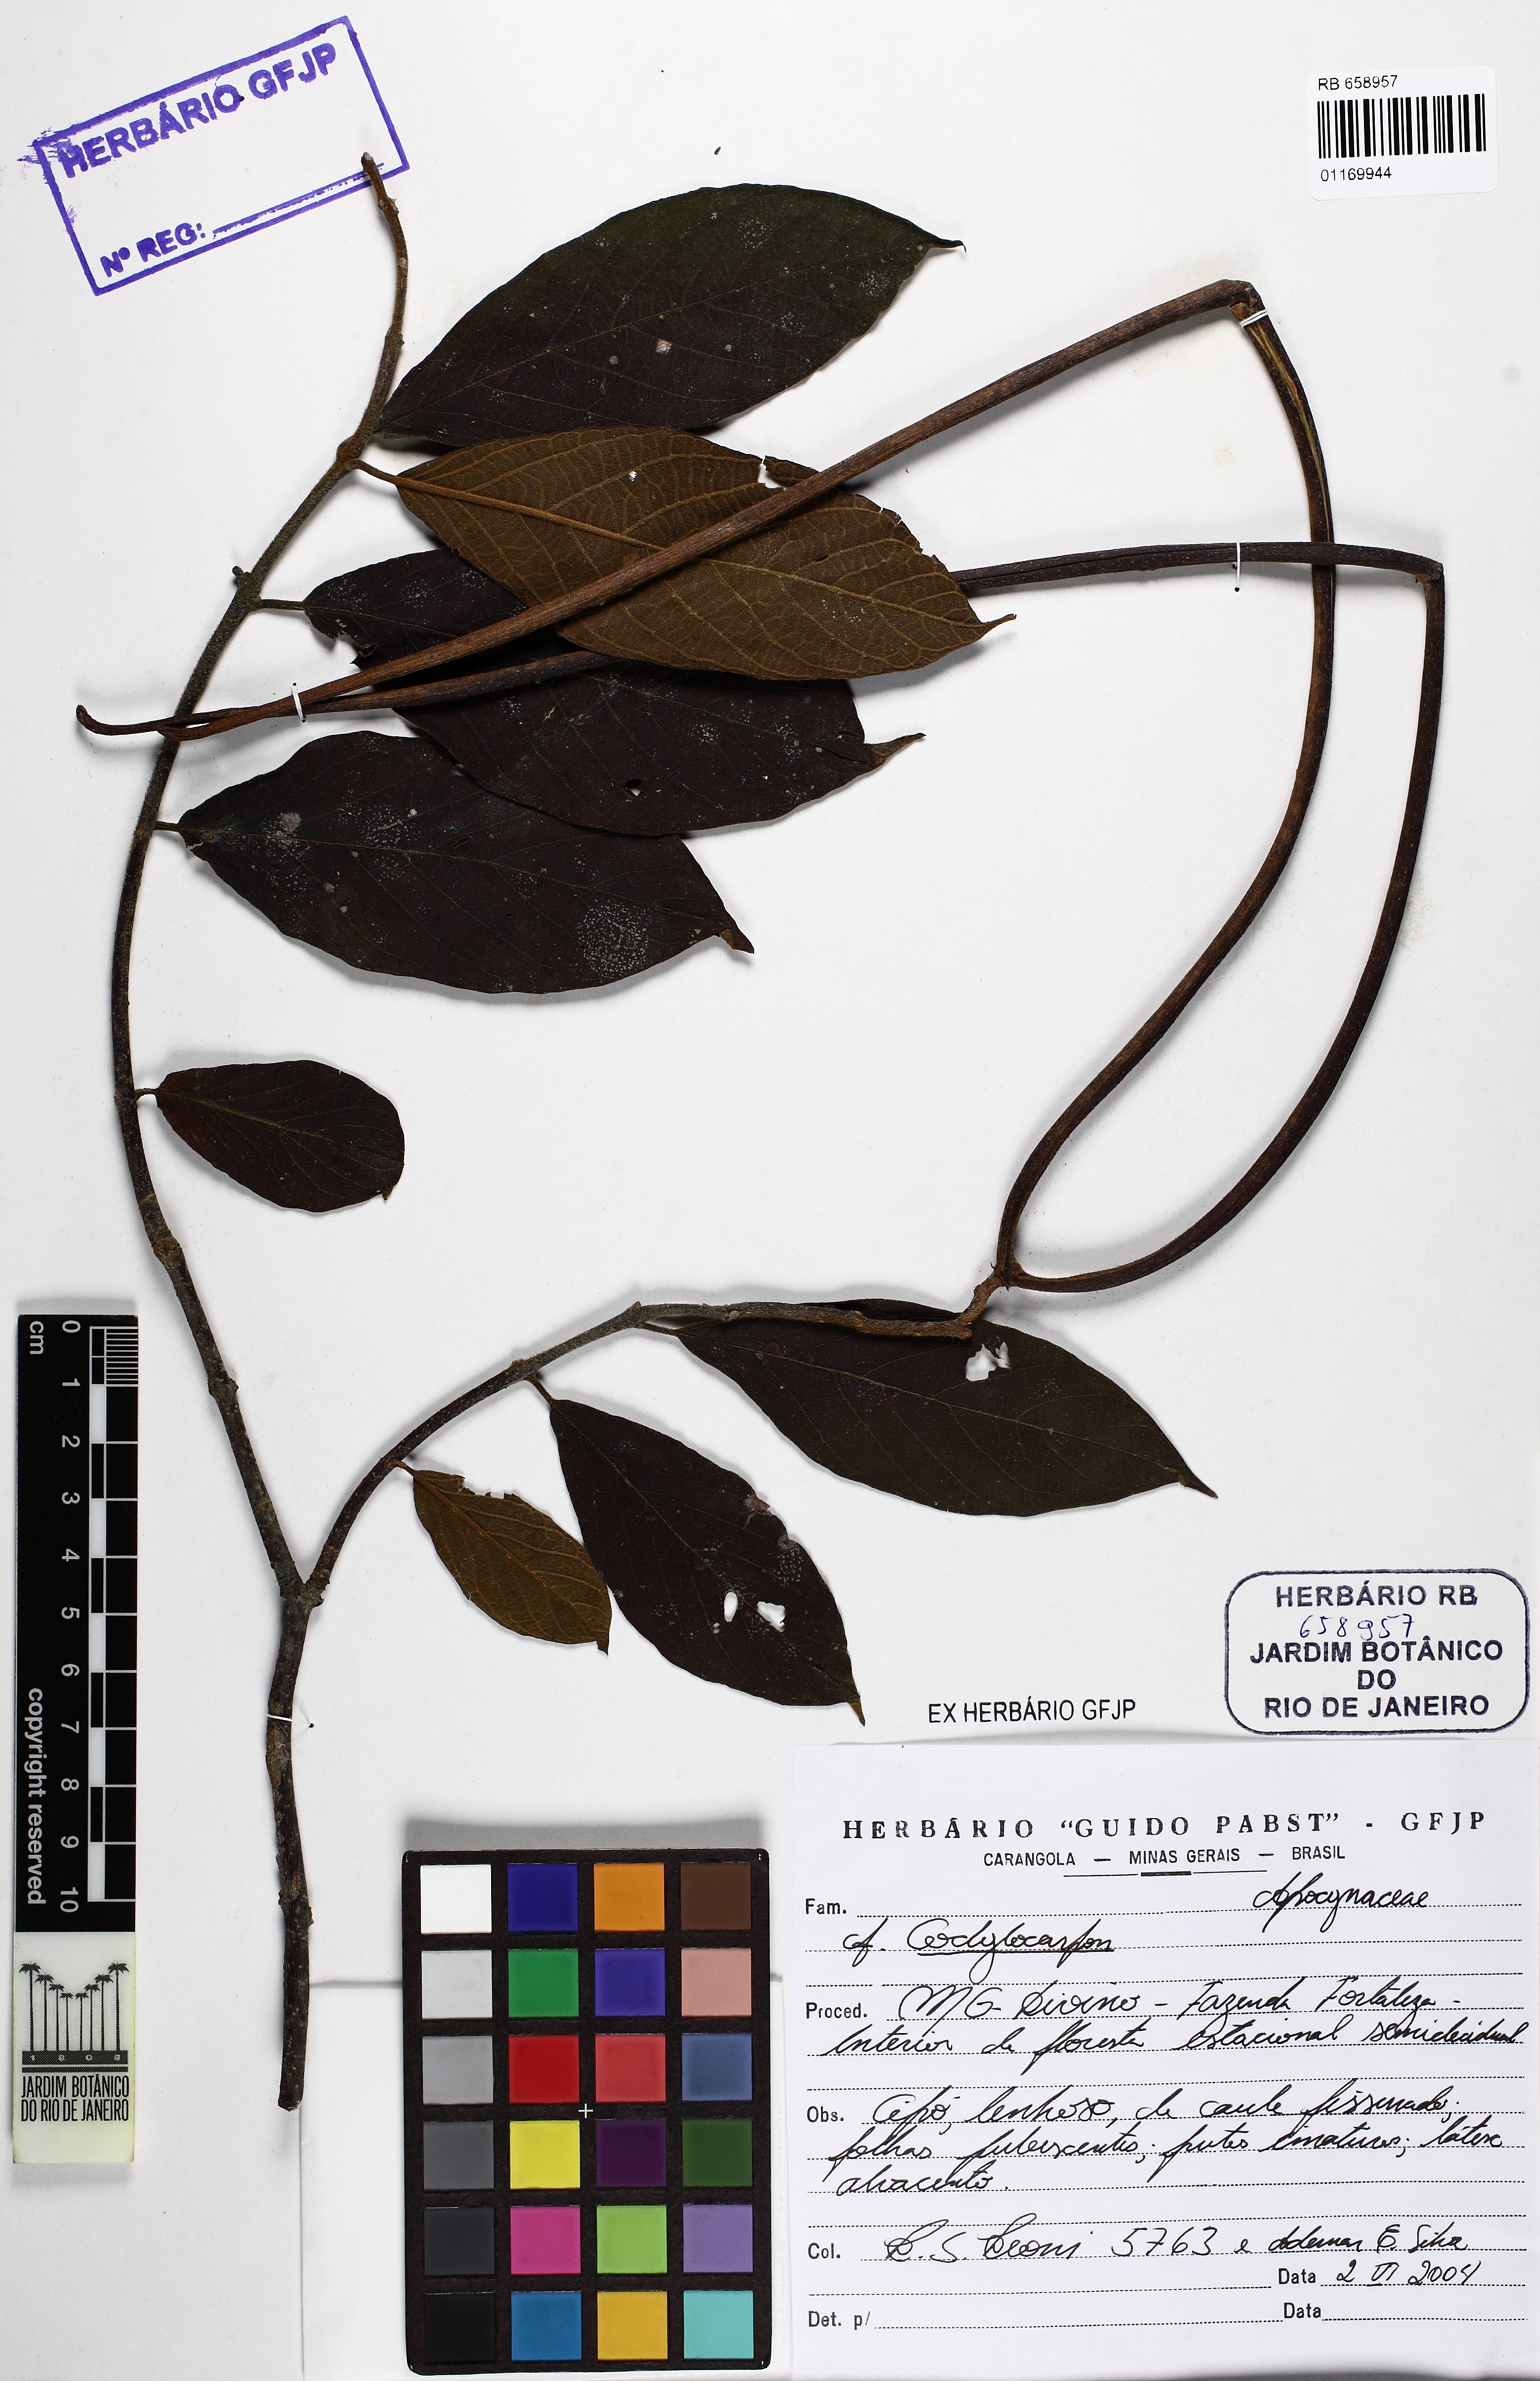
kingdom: Plantae
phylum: Tracheophyta
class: Magnoliopsida
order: Gentianales
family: Apocynaceae
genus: Condylocarpon
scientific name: Condylocarpon
